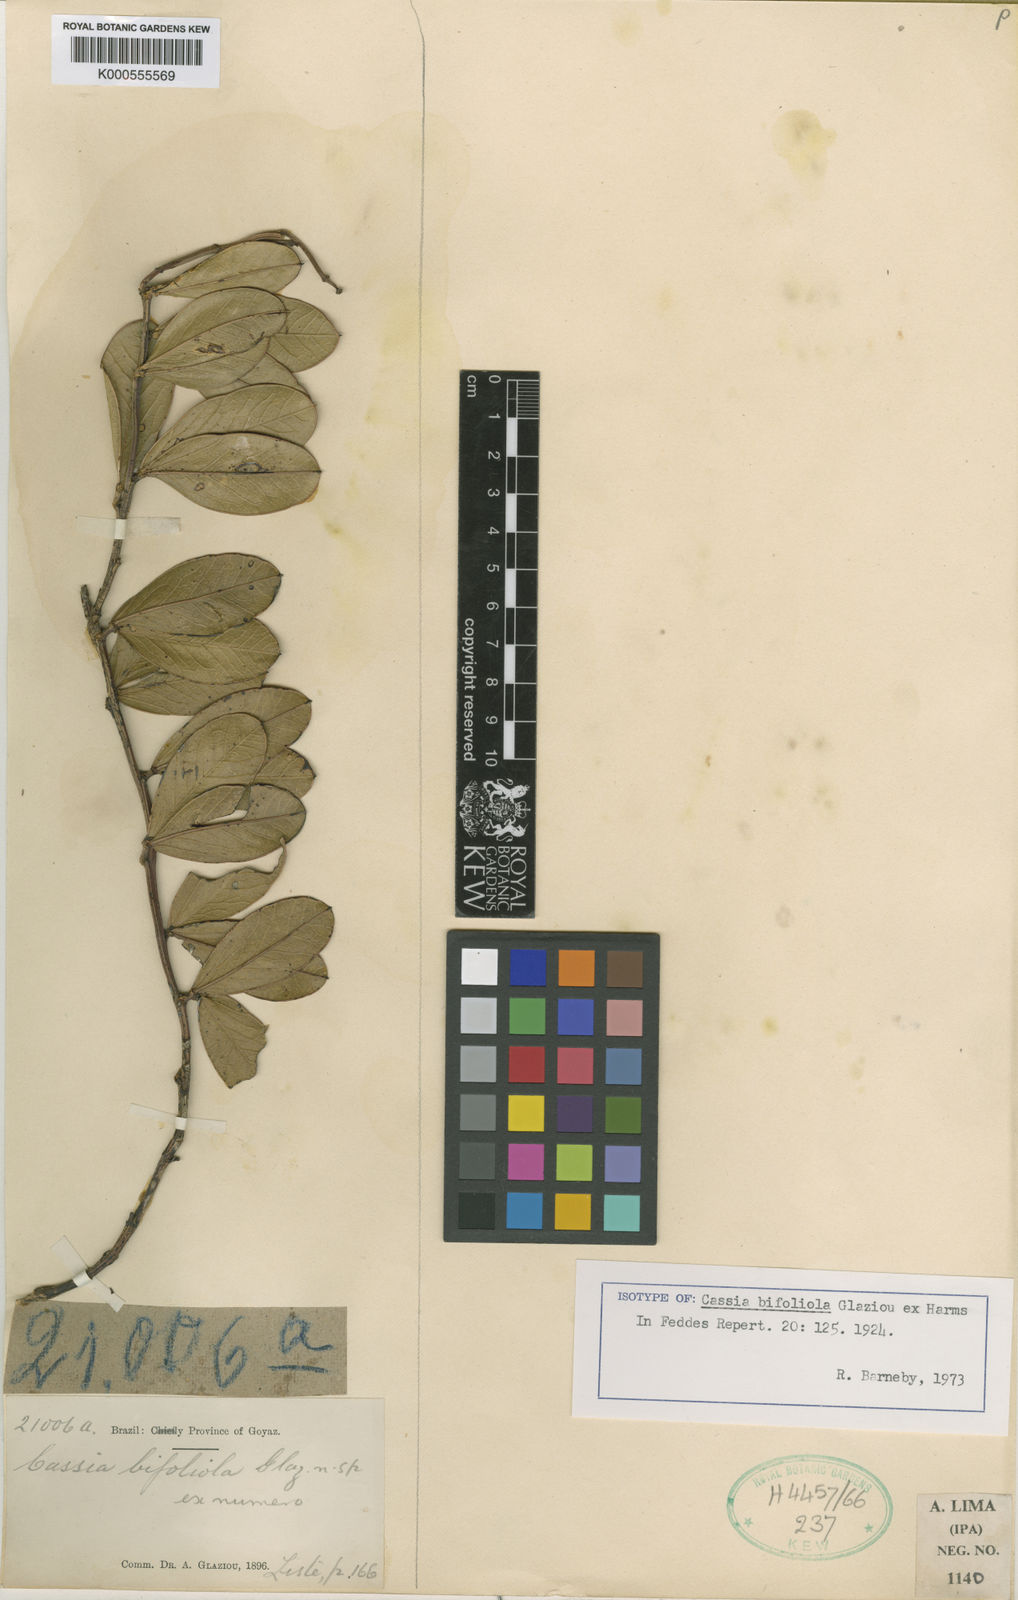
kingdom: Plantae
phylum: Tracheophyta
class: Magnoliopsida
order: Fabales
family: Fabaceae
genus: Chamaecrista
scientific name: Chamaecrista bifoliola
